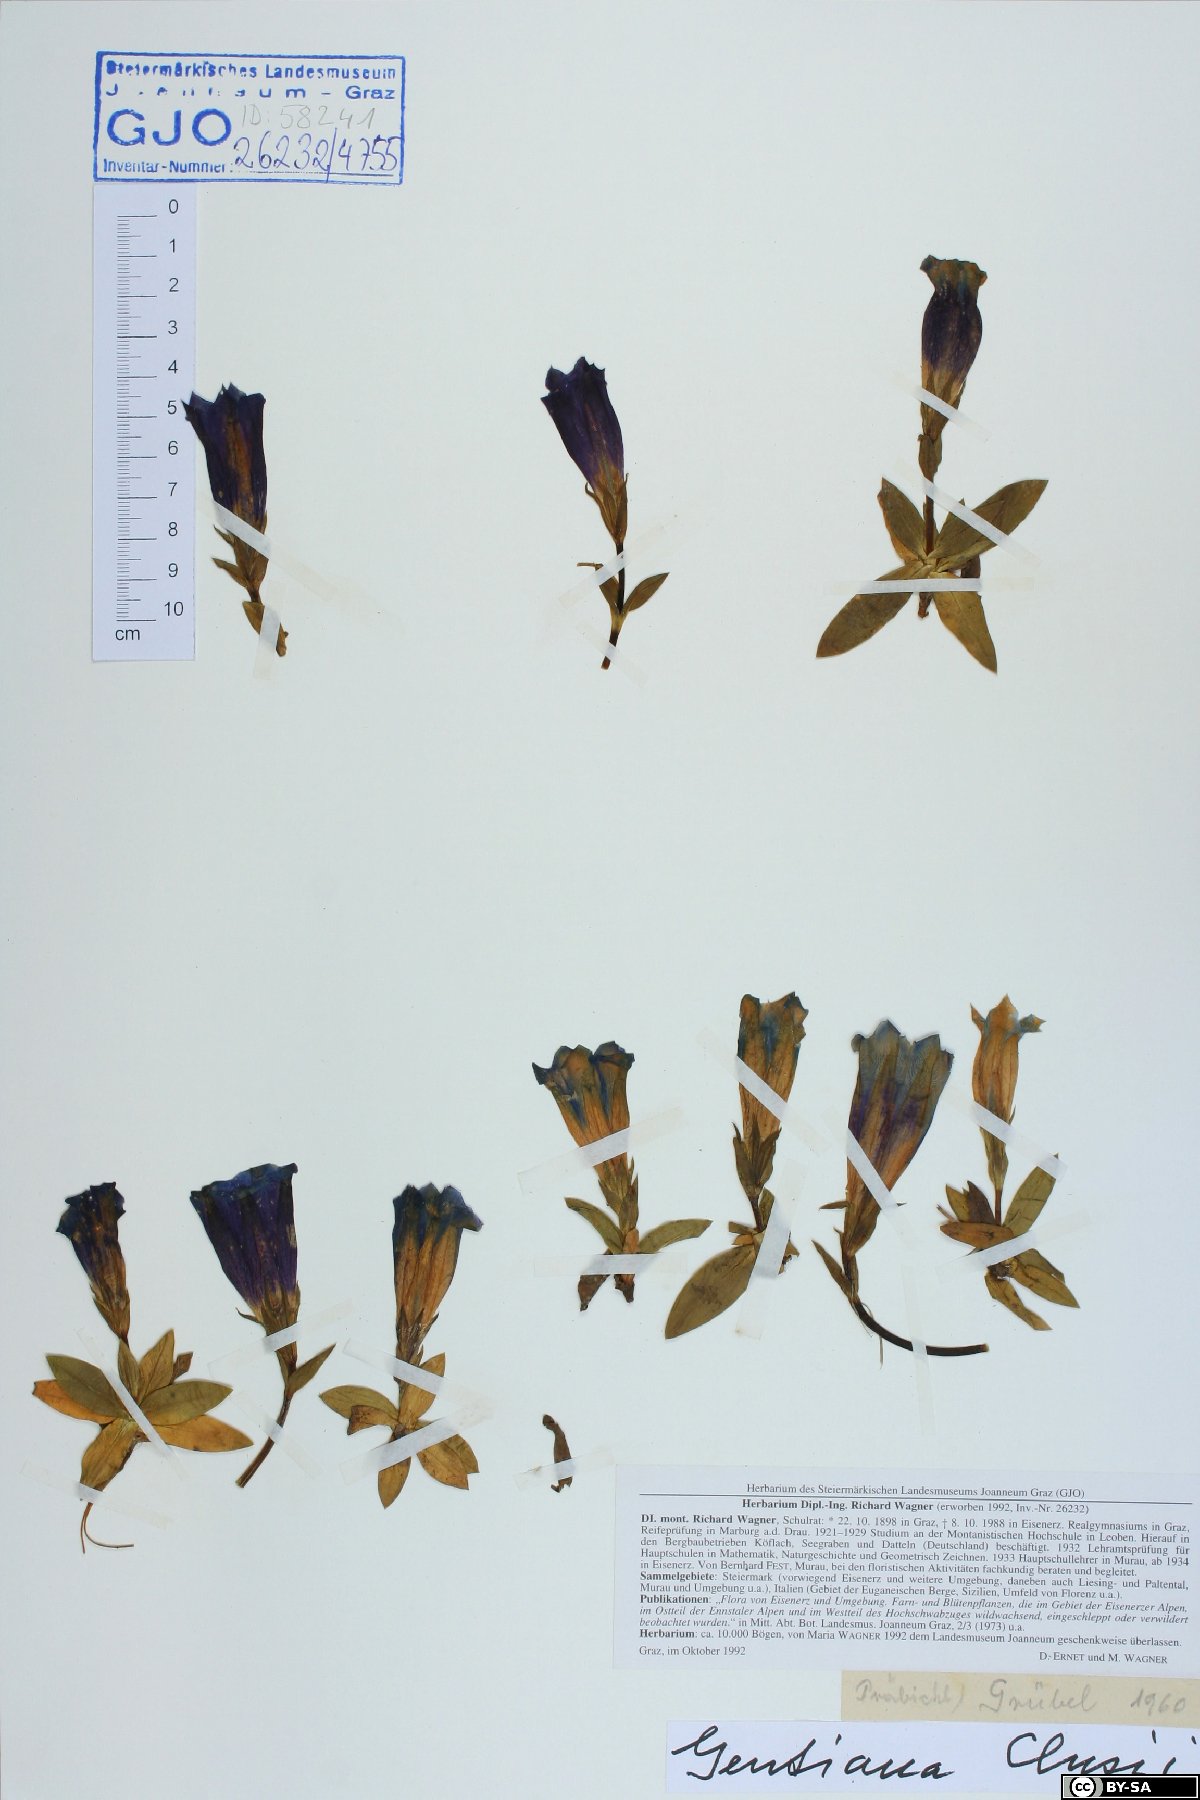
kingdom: Plantae
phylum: Tracheophyta
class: Magnoliopsida
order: Gentianales
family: Gentianaceae
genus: Gentiana
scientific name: Gentiana clusii
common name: Trumpet gentian
